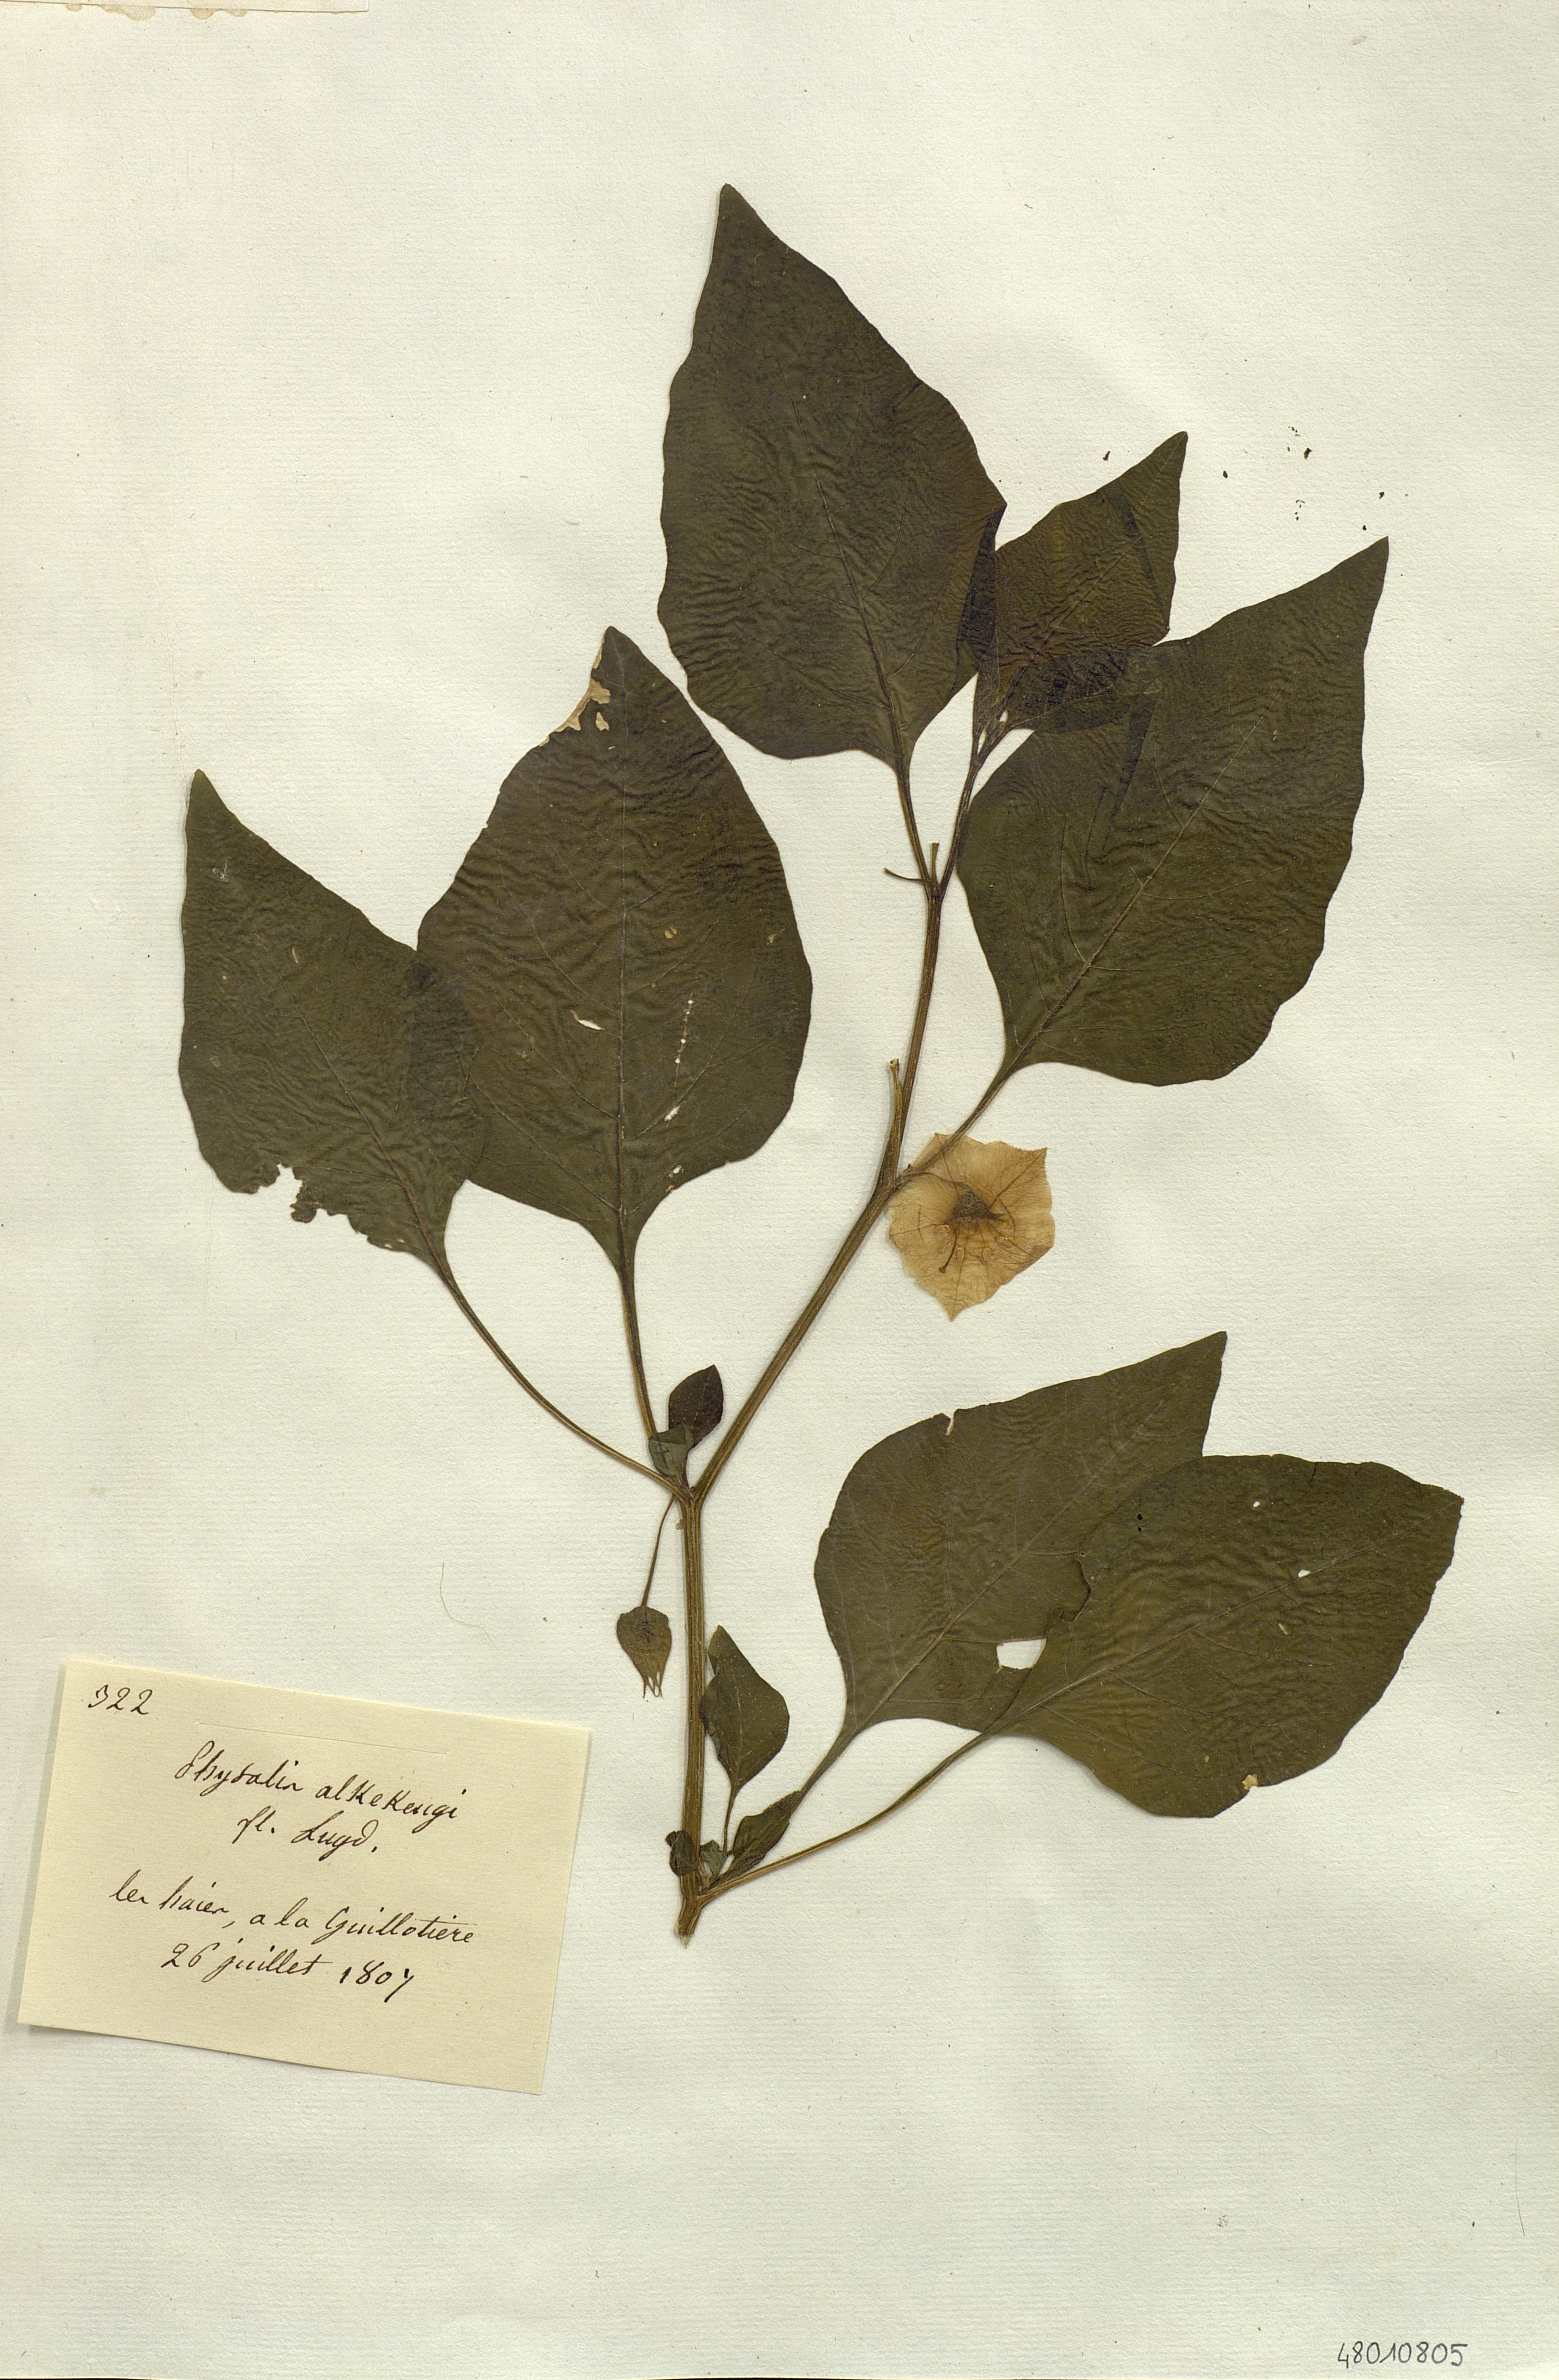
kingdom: Plantae
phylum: Tracheophyta
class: Magnoliopsida
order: Solanales
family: Solanaceae
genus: Physalis
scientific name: Physalis lagascae
